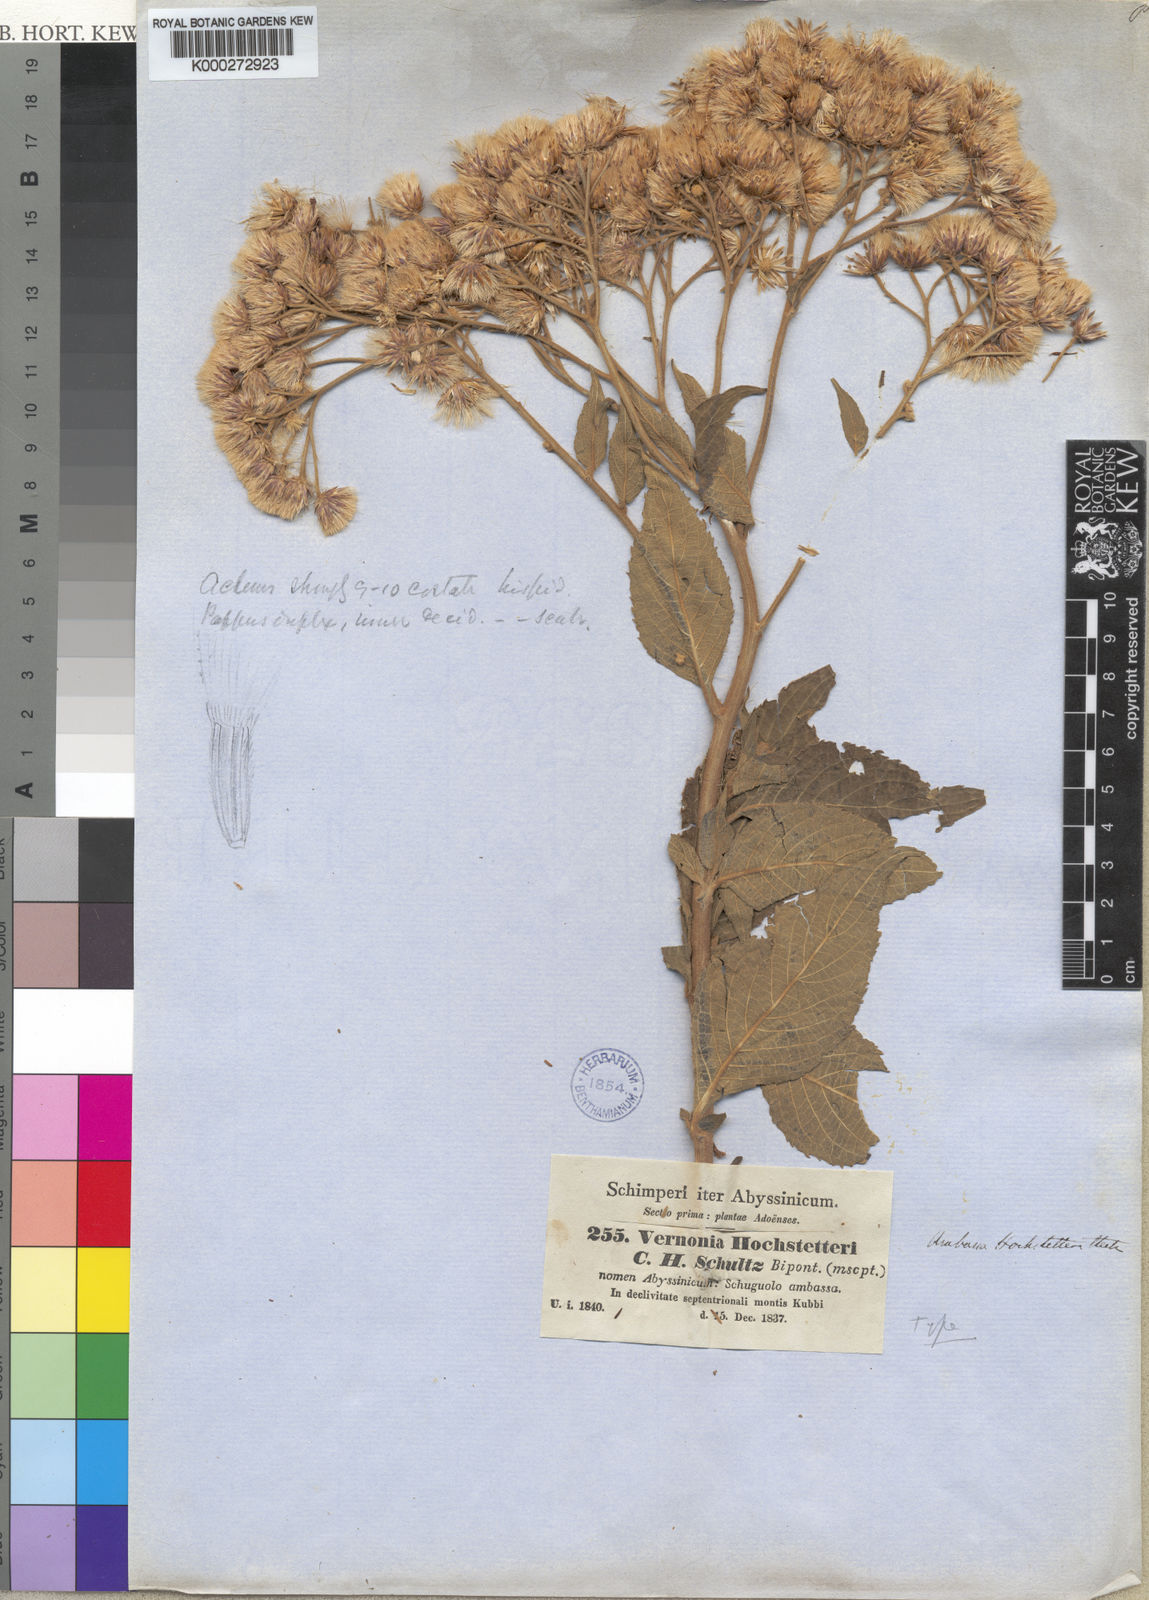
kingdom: Plantae
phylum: Tracheophyta
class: Magnoliopsida
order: Asterales
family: Asteraceae
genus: Vernonia
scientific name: Vernonia
